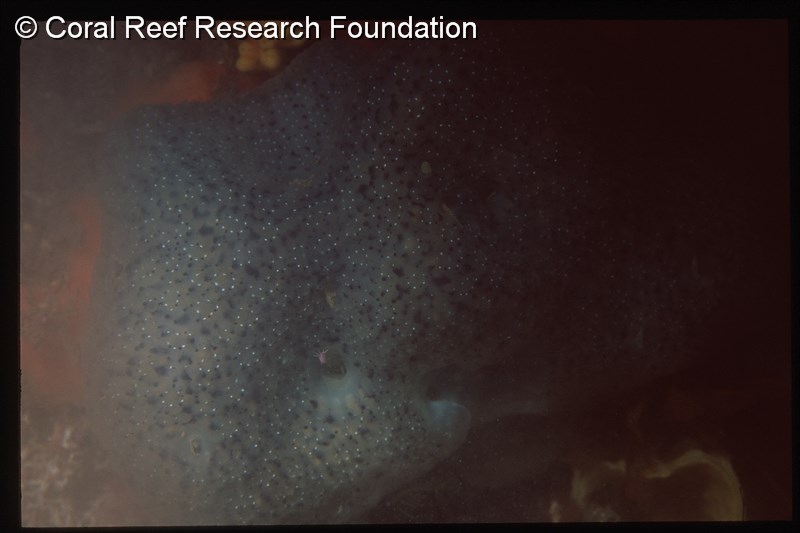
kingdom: Animalia
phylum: Chordata
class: Ascidiacea
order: Aplousobranchia
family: Polyclinidae
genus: Synoicum
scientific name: Synoicum
